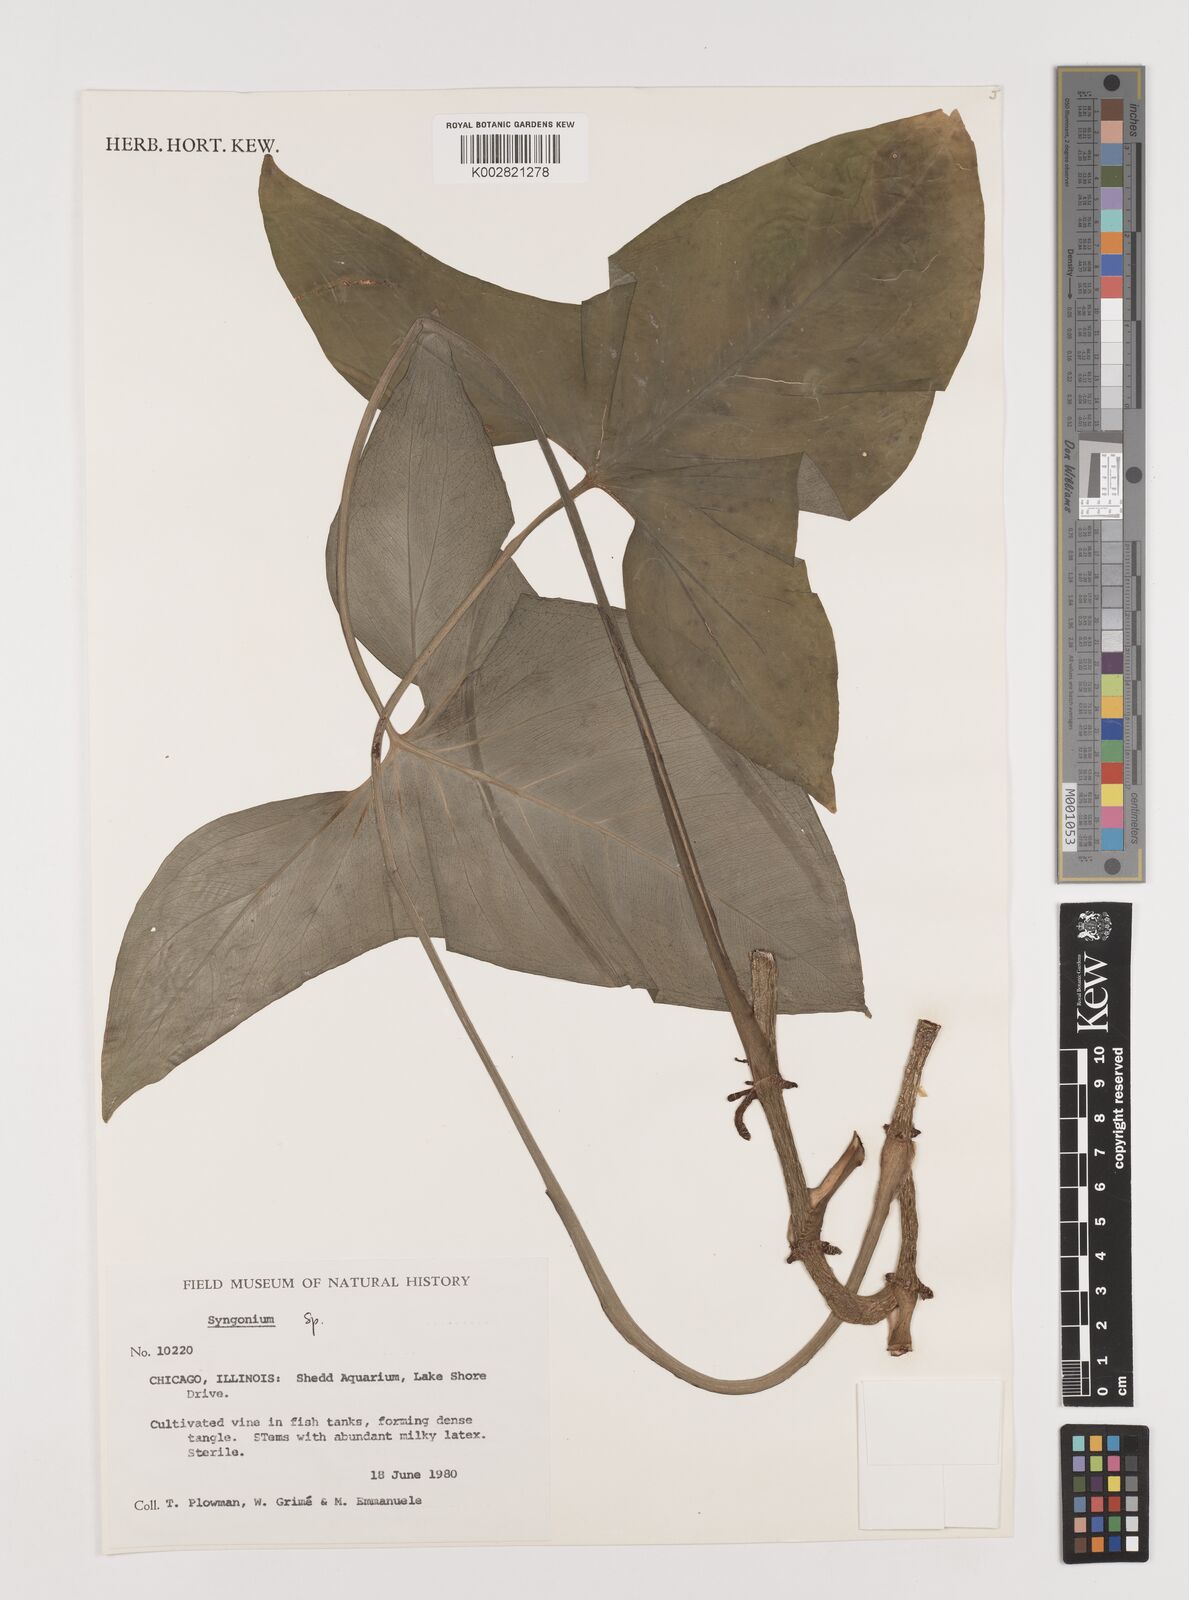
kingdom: Plantae
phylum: Tracheophyta
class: Liliopsida
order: Alismatales
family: Araceae
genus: Syngonium
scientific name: Syngonium
